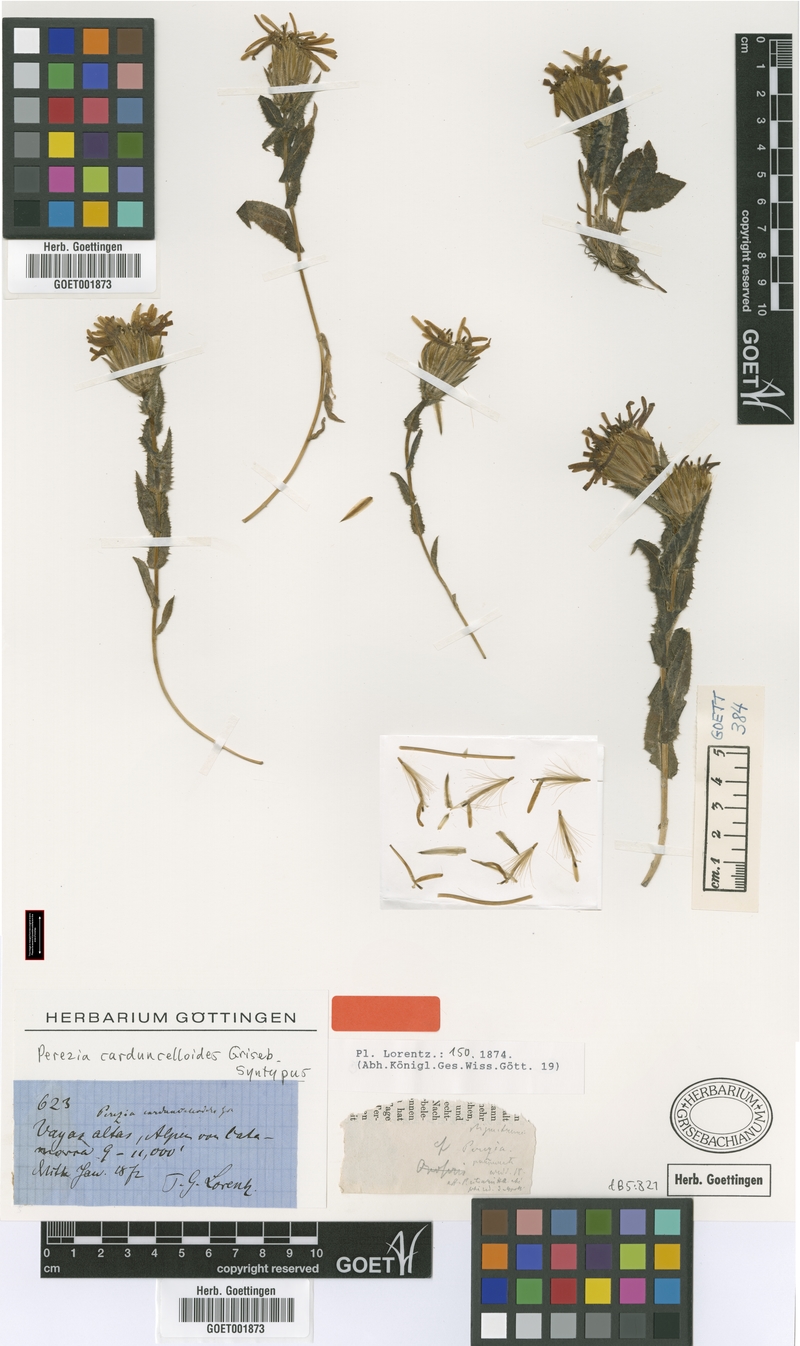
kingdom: Plantae
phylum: Tracheophyta
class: Magnoliopsida
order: Asterales
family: Asteraceae
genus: Perezia
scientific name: Perezia pungens
